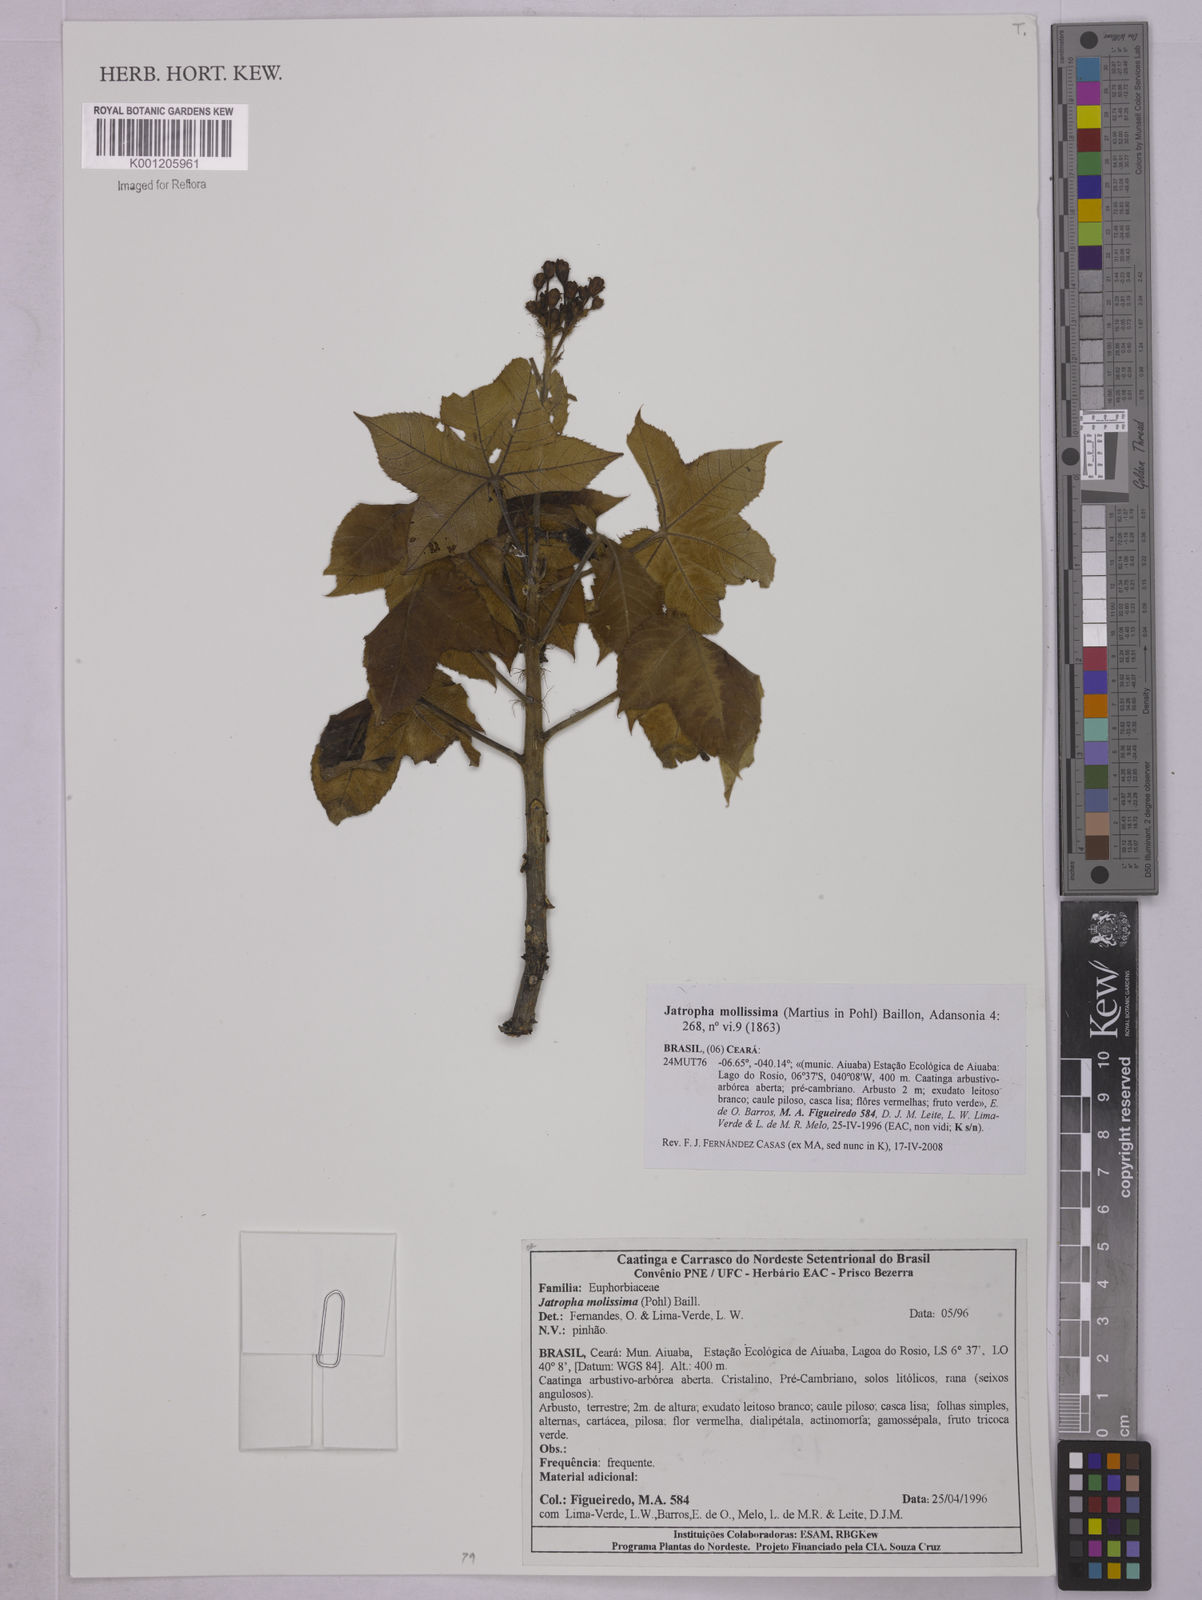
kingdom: Plantae
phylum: Tracheophyta
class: Magnoliopsida
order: Malpighiales
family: Euphorbiaceae
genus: Jatropha
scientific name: Jatropha mollissima
